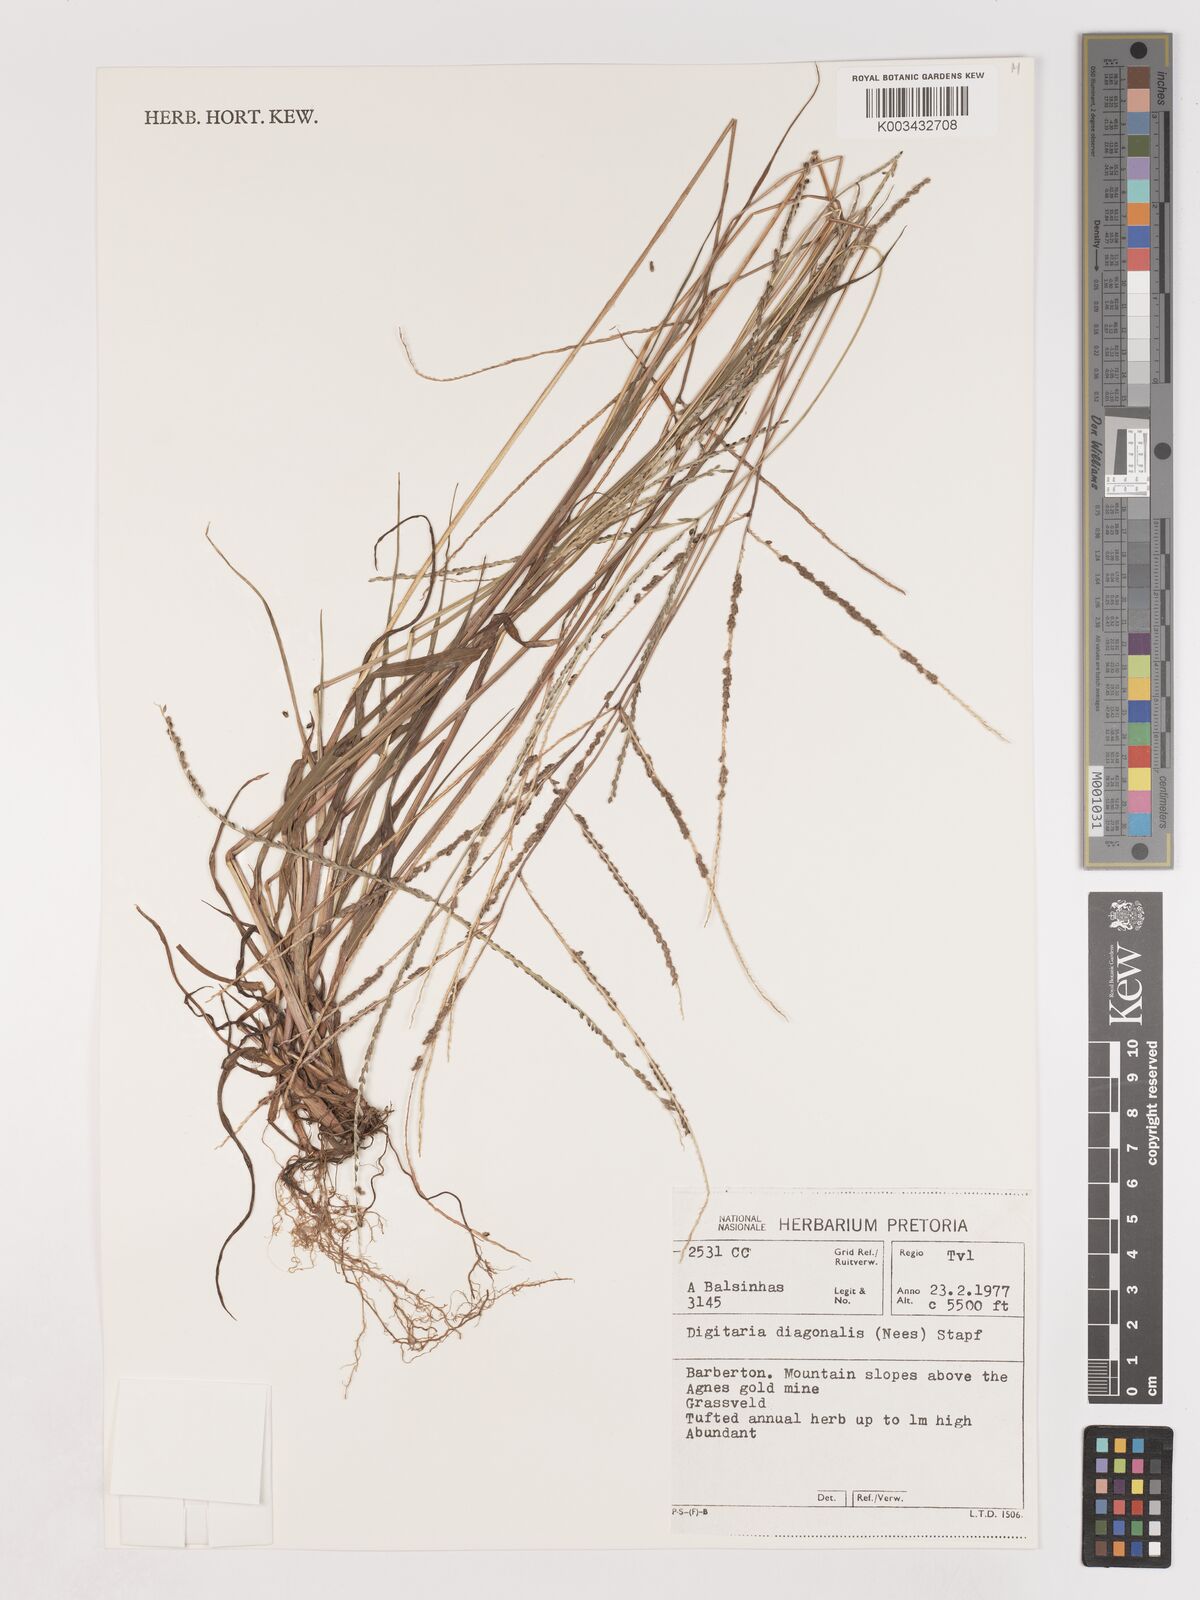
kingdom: Plantae
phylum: Tracheophyta
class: Liliopsida
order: Poales
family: Poaceae
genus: Digitaria
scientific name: Digitaria diagonalis
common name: Brown-seed finger grass
